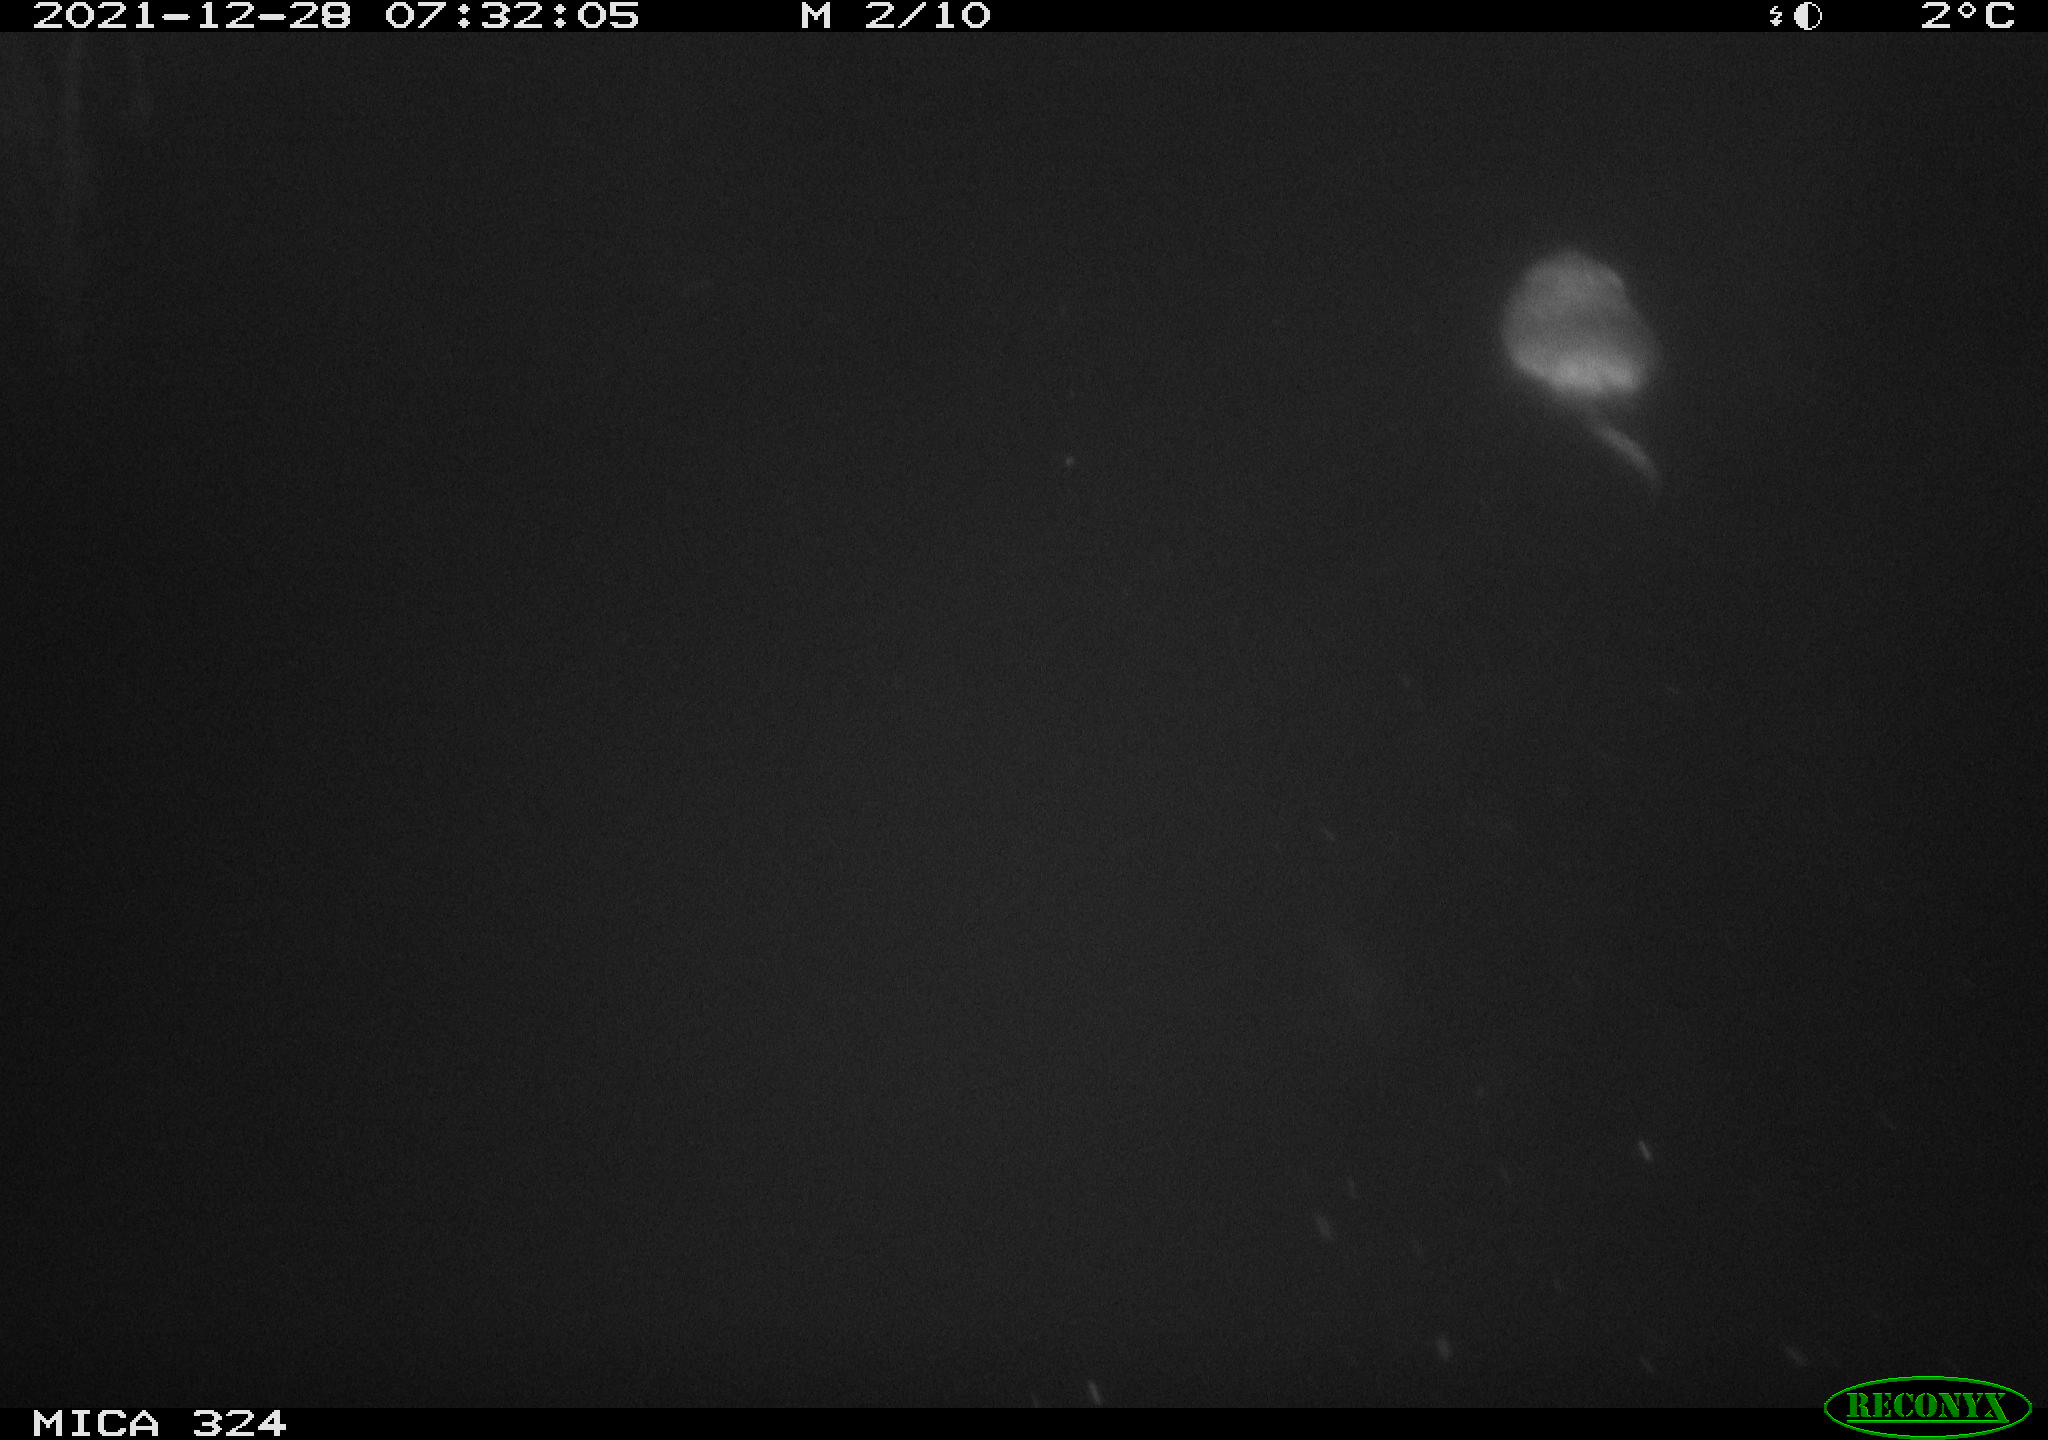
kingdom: Animalia
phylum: Chordata
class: Mammalia
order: Rodentia
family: Cricetidae
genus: Ondatra
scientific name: Ondatra zibethicus
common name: Muskrat
